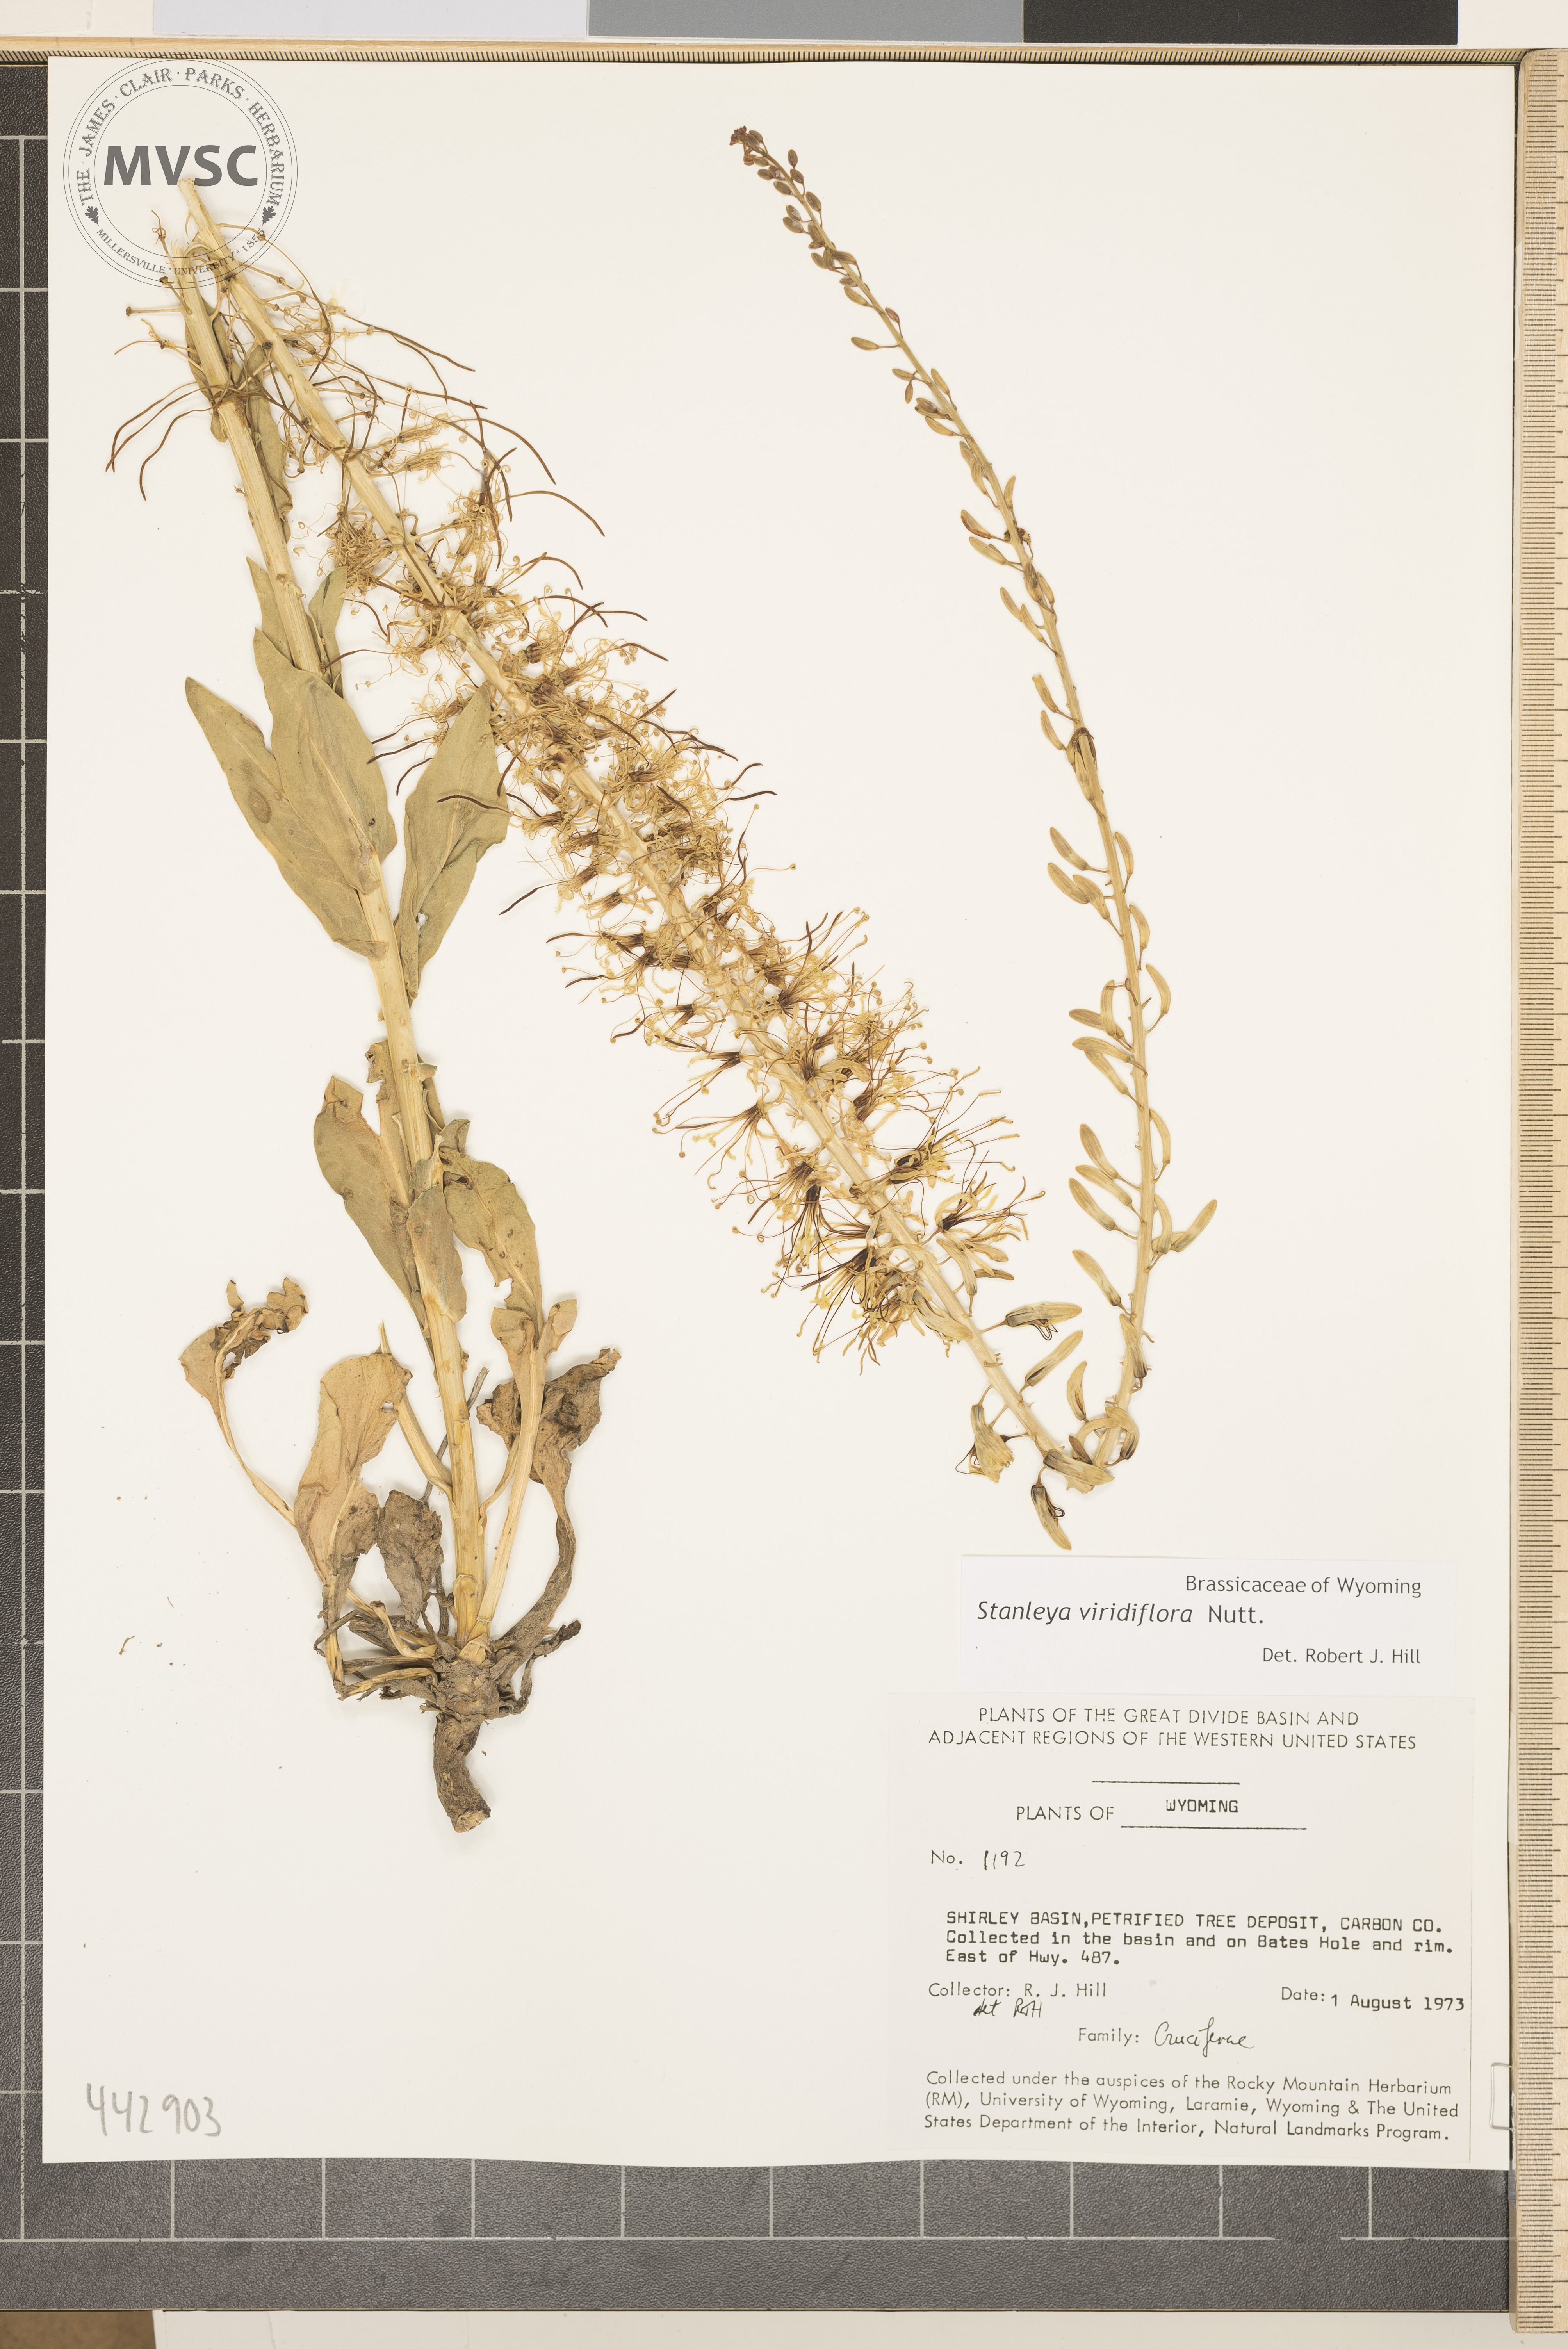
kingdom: Plantae
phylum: Tracheophyta
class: Magnoliopsida
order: Brassicales
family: Brassicaceae
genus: Stanleya
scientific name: Stanleya viridiflora
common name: Desert plume
